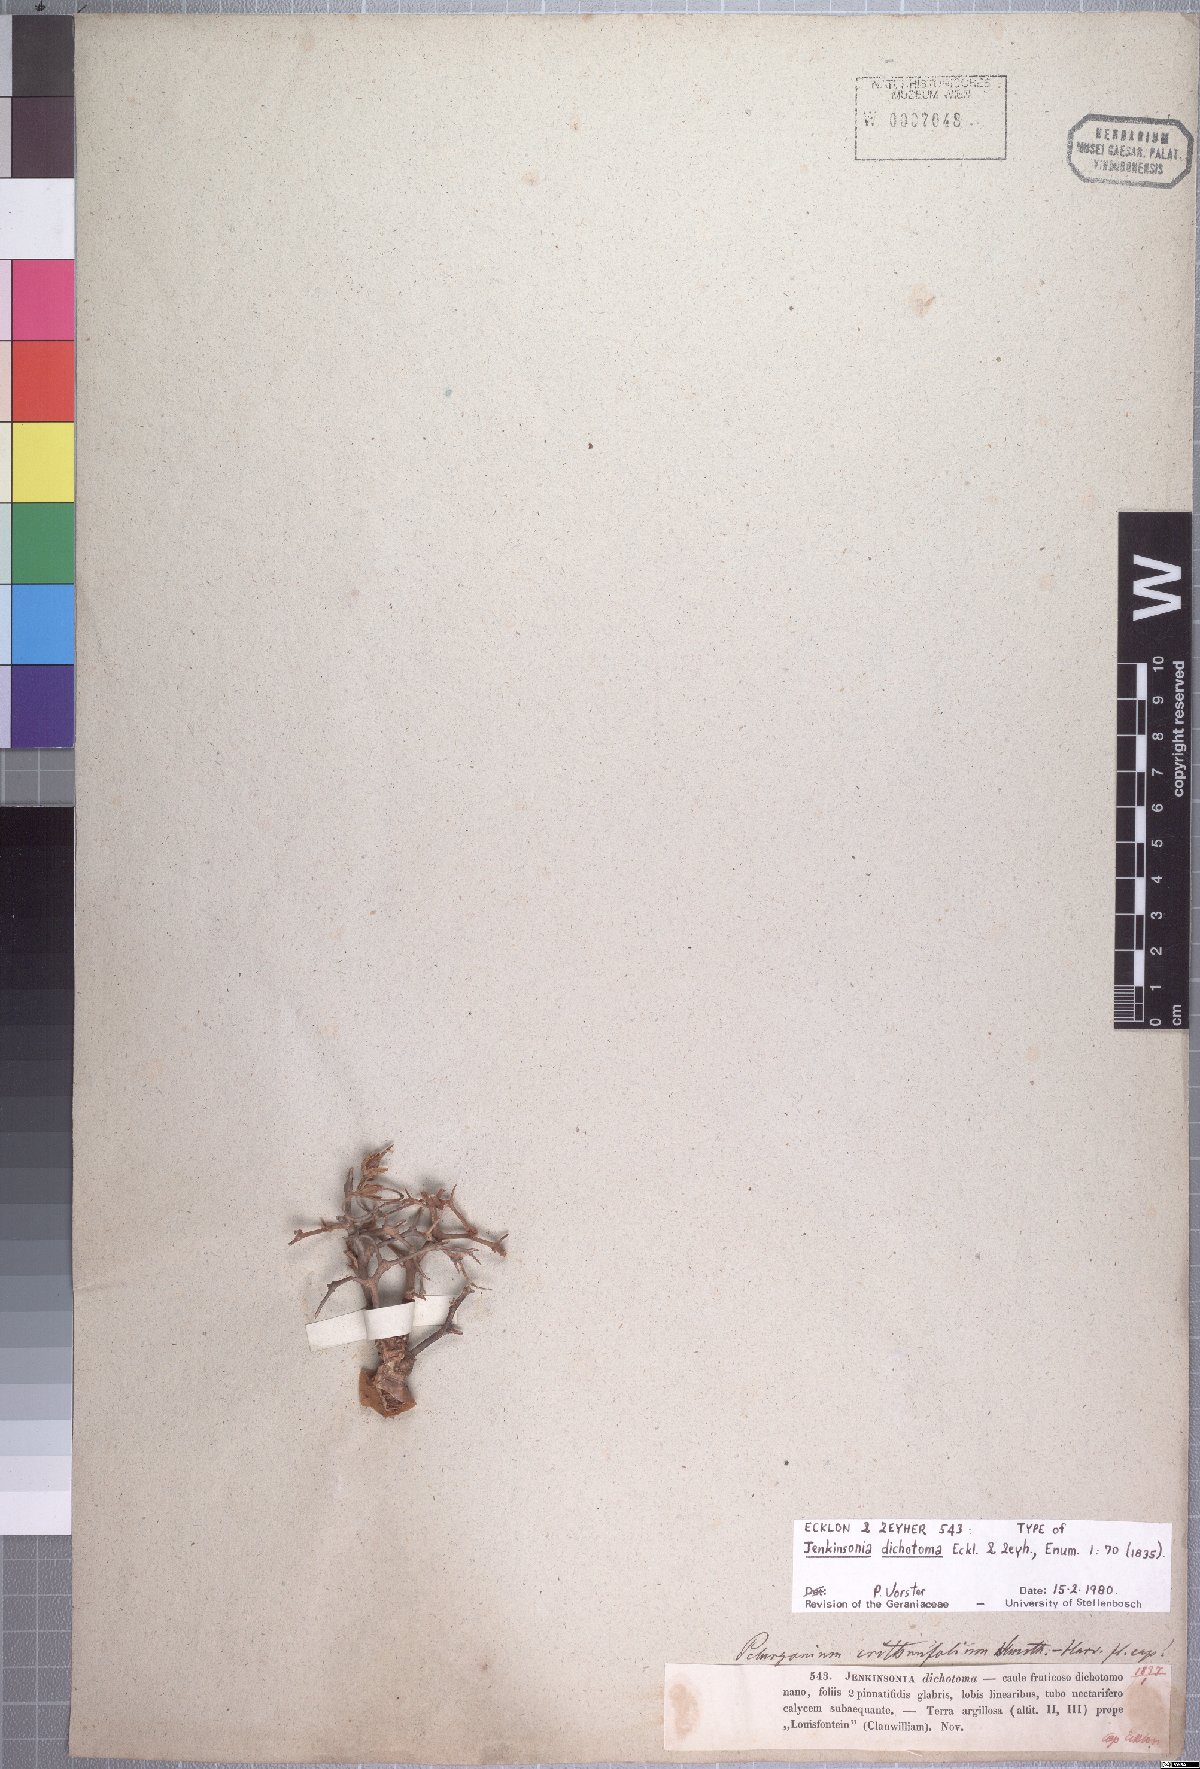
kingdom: Plantae
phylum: Tracheophyta
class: Magnoliopsida
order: Geraniales
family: Geraniaceae
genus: Pelargonium
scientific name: Pelargonium dichotomum
